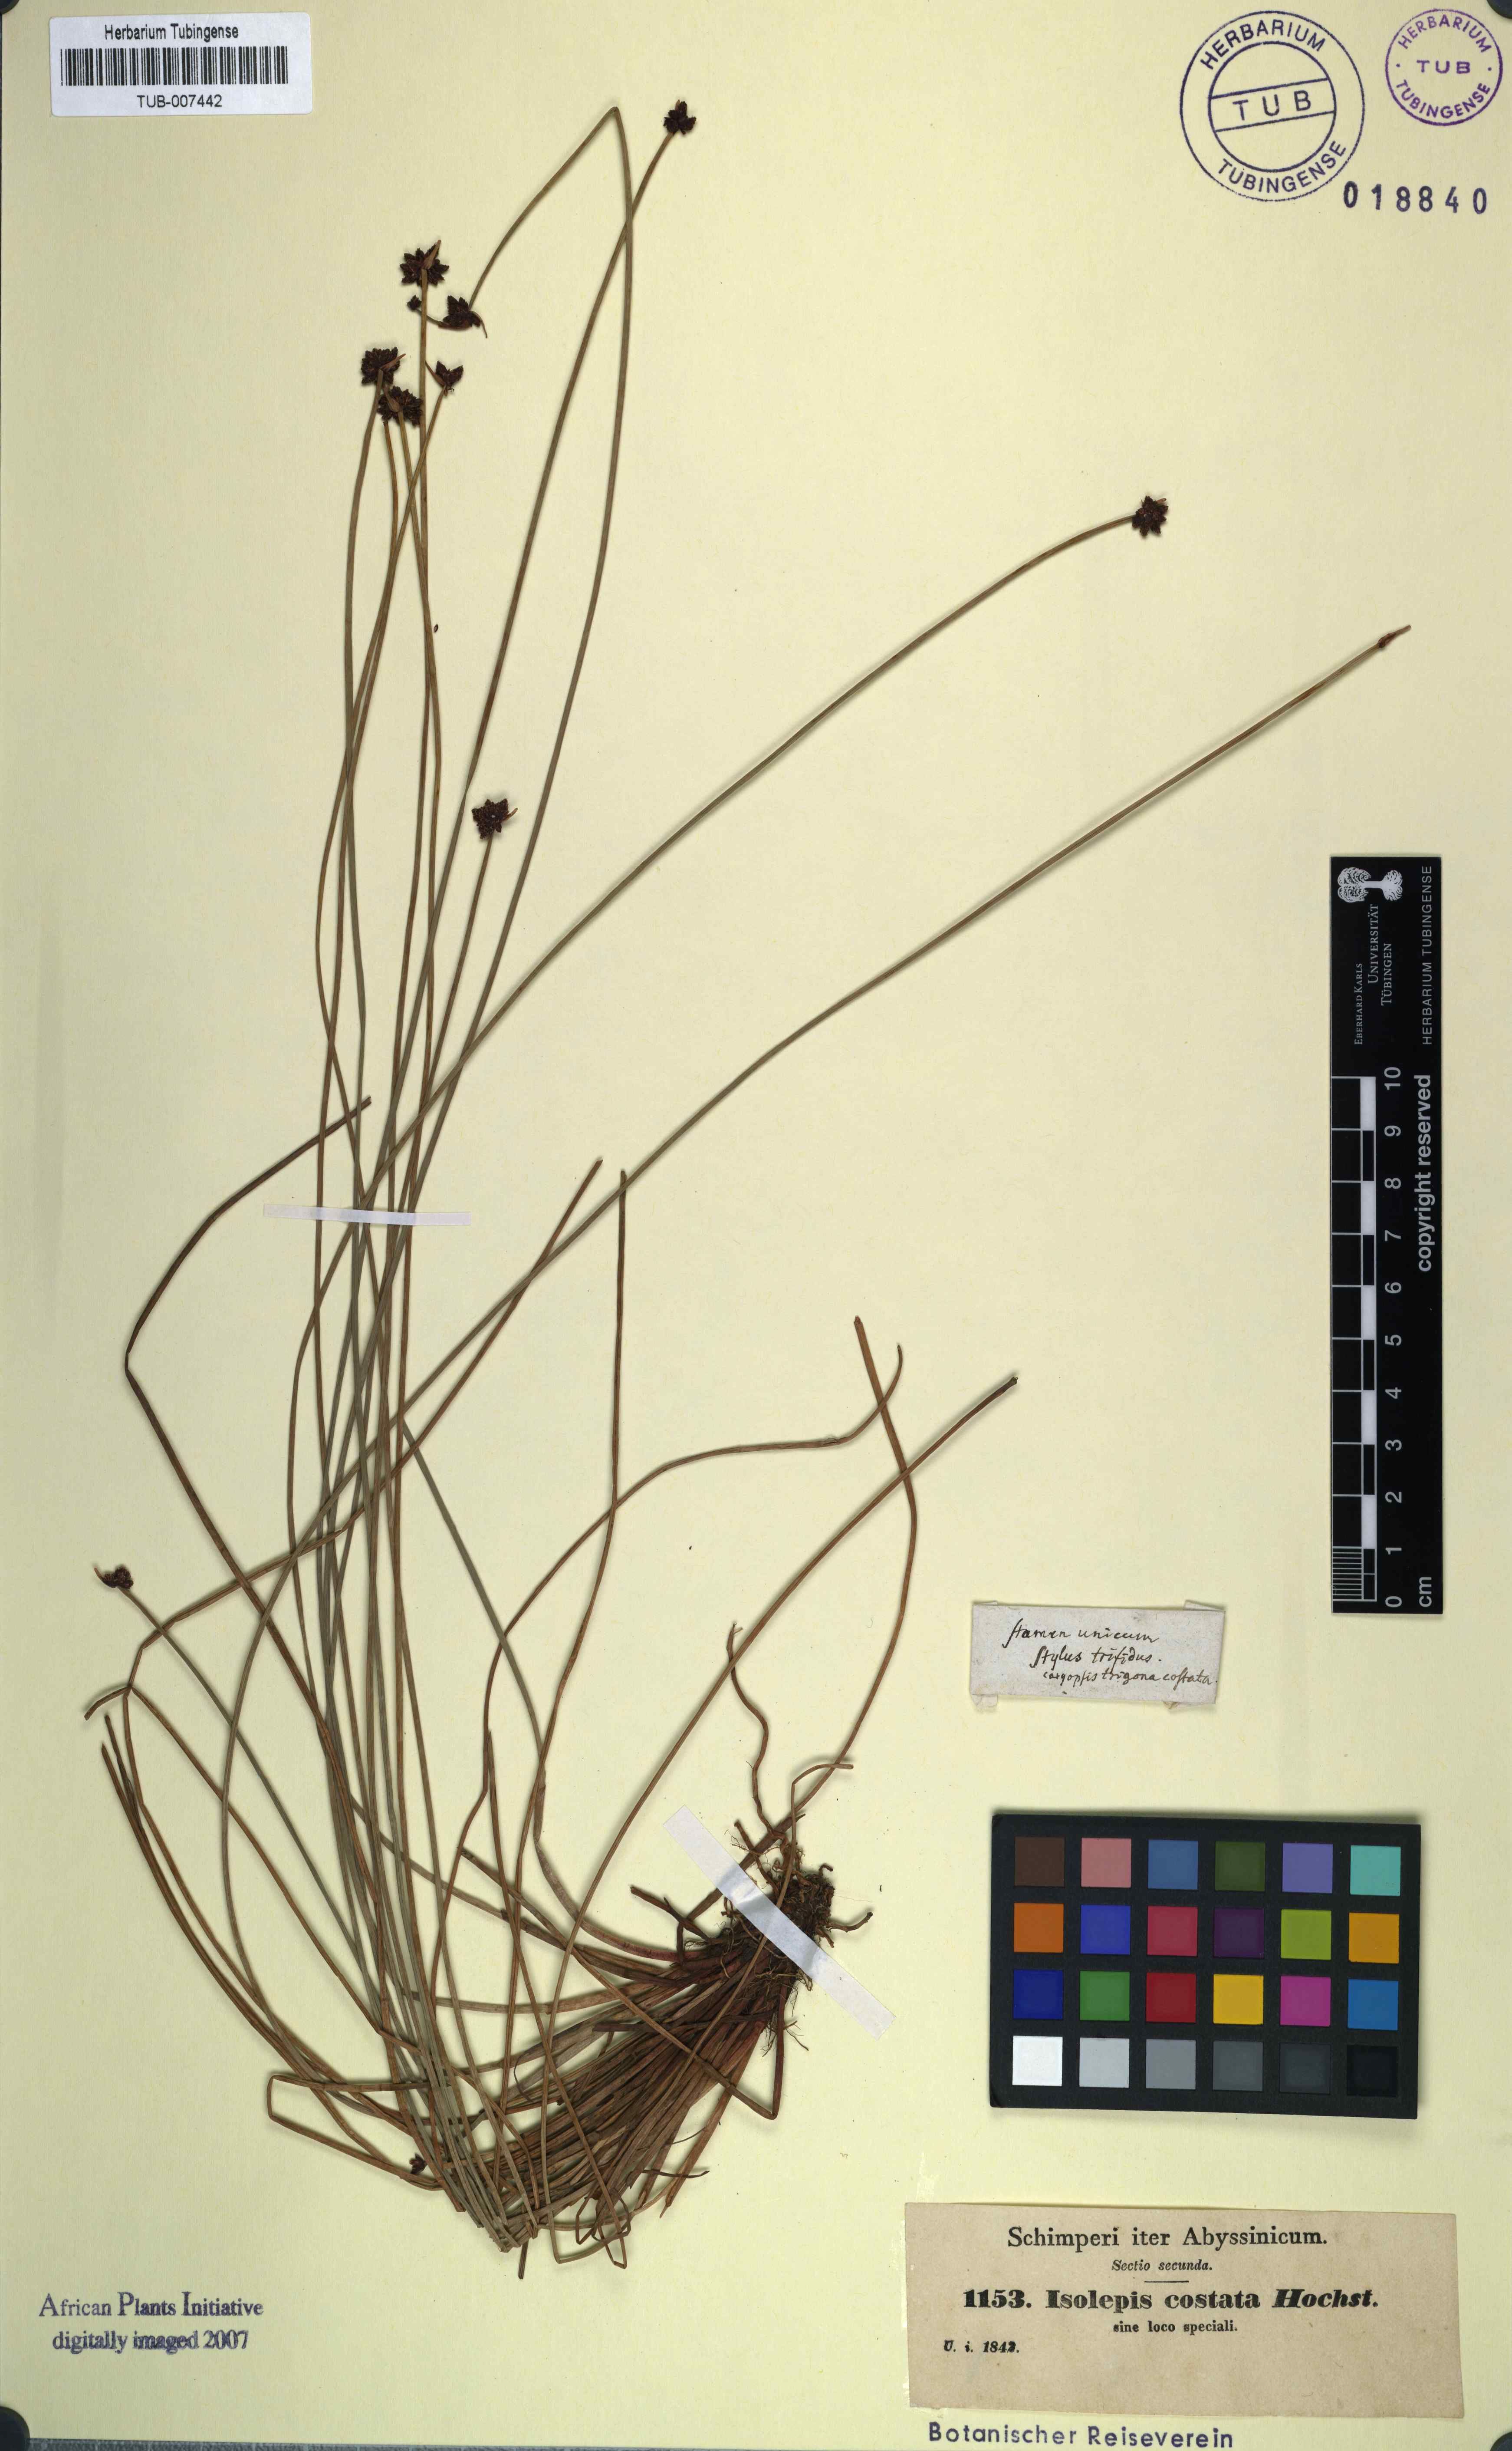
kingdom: Plantae
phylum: Tracheophyta
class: Liliopsida
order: Poales
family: Cyperaceae
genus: Isolepis
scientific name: Isolepis costata
